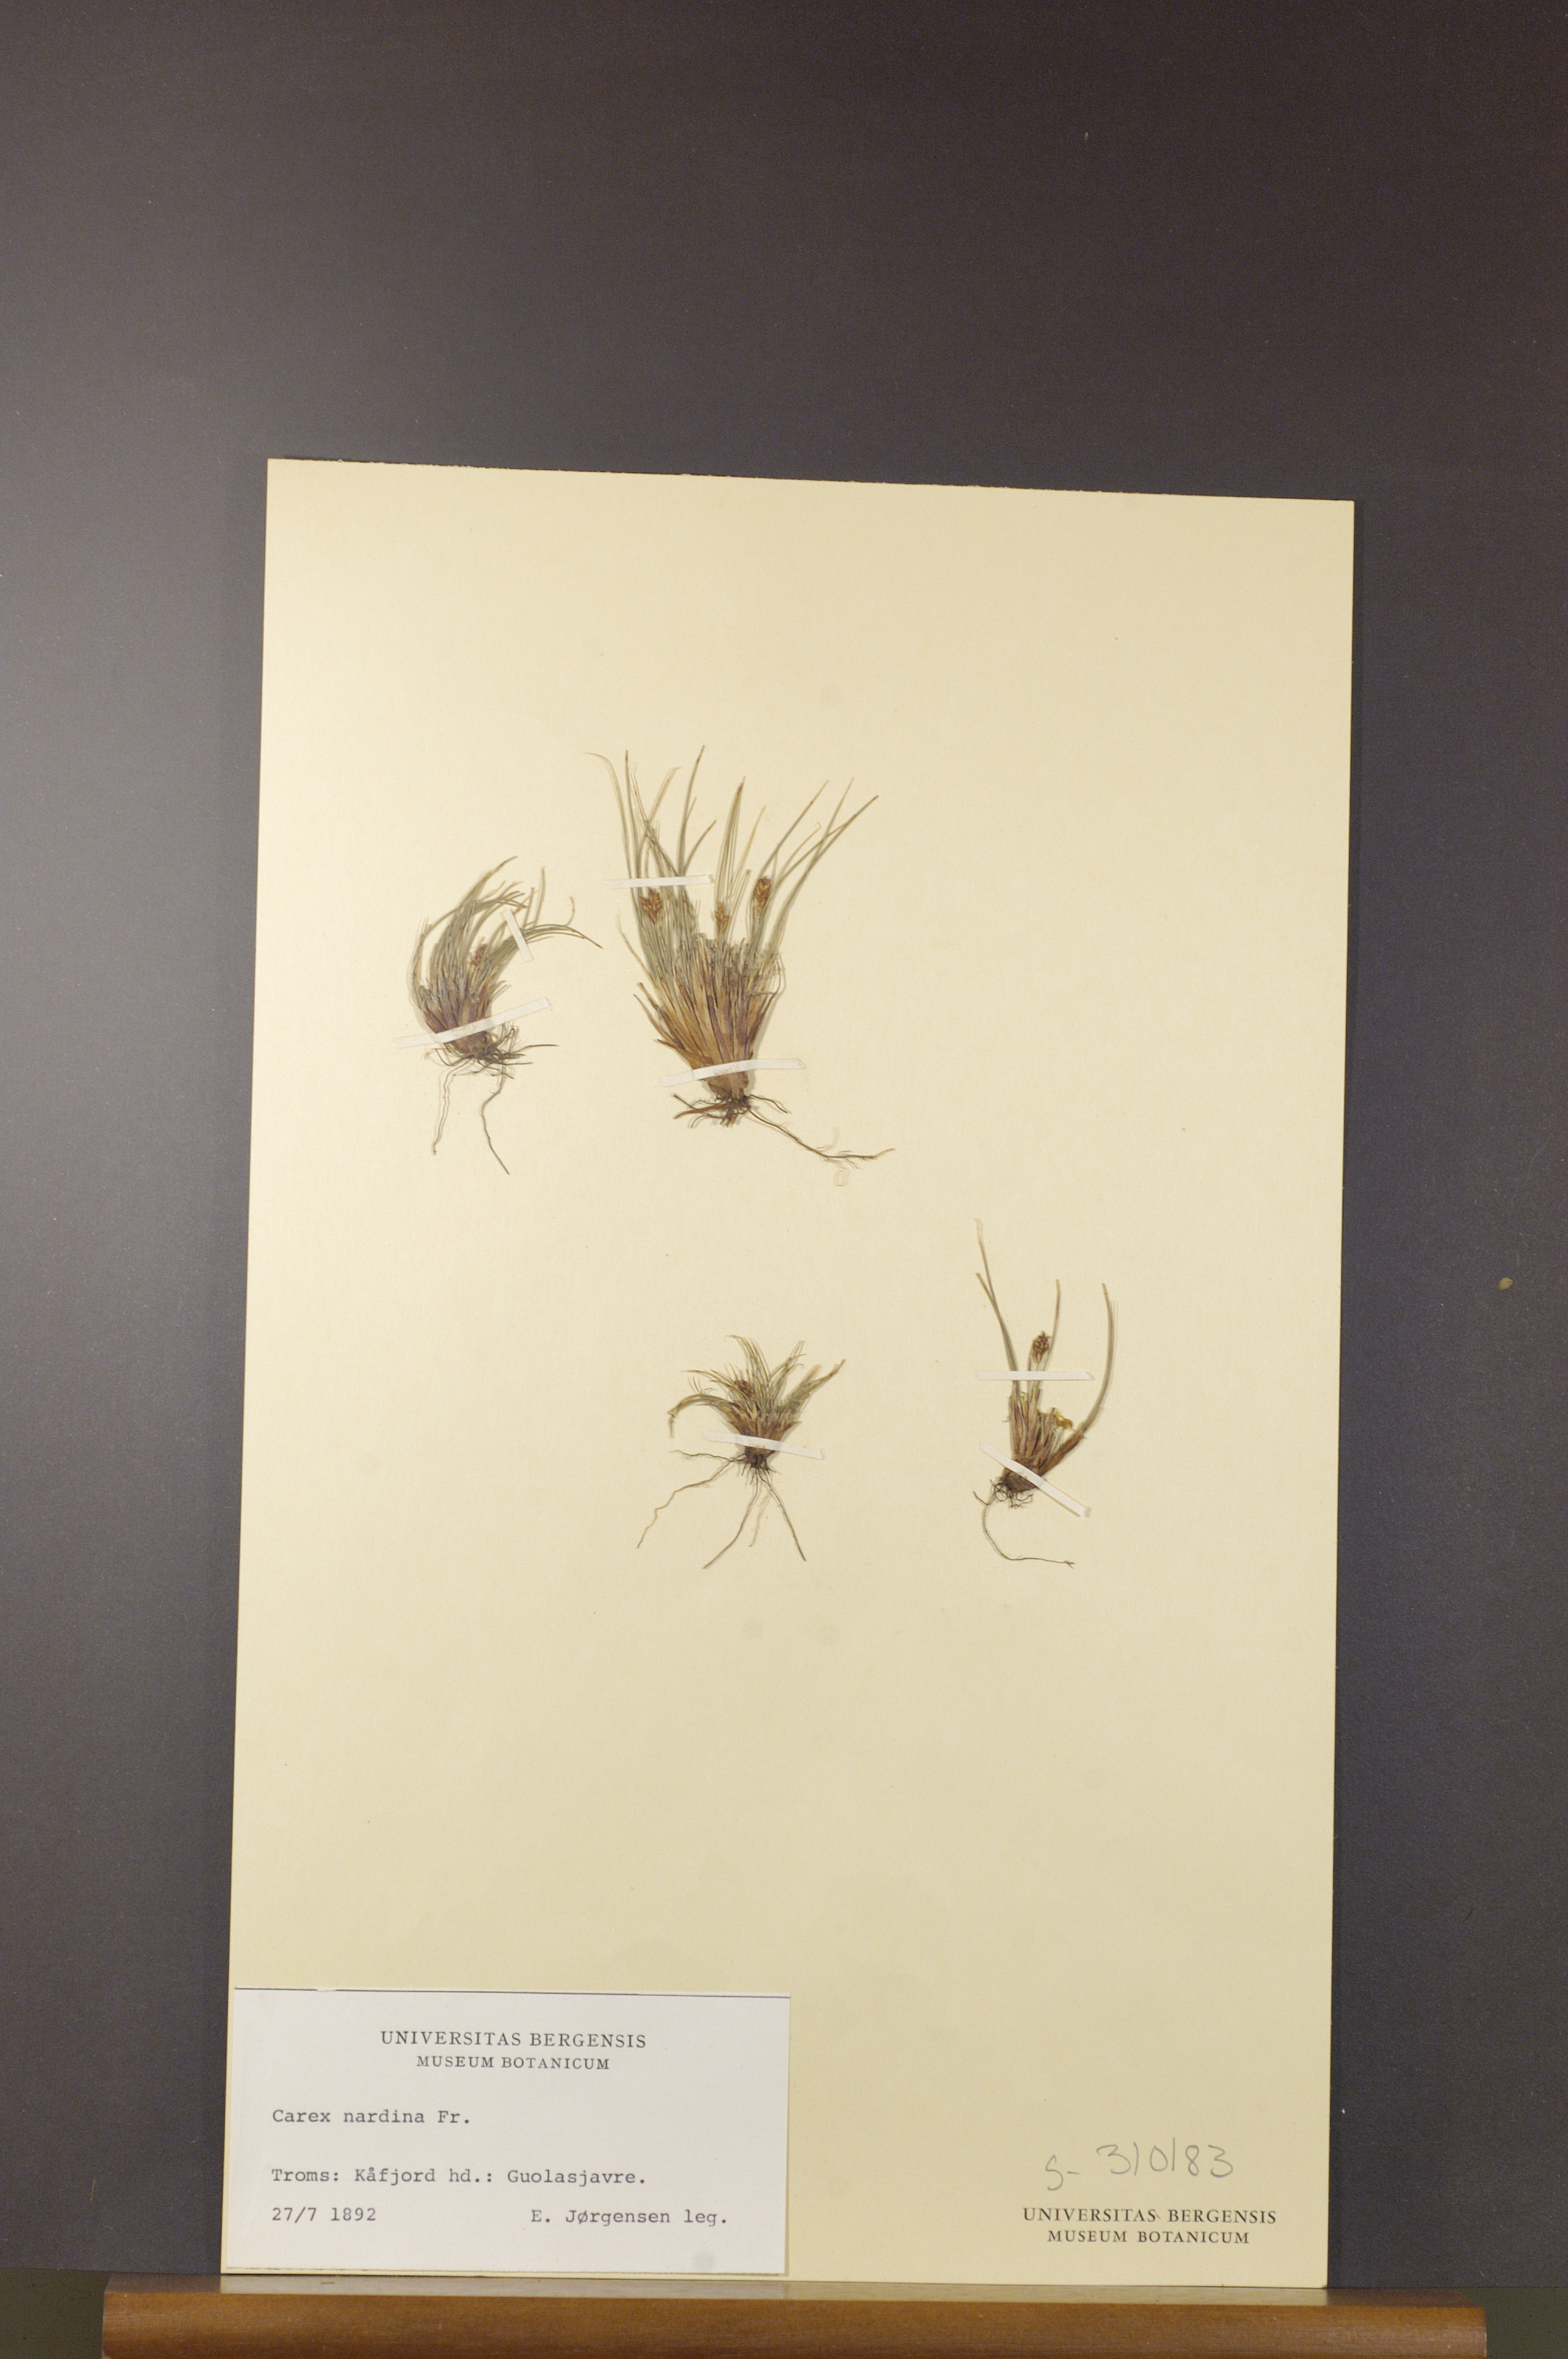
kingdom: Plantae
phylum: Tracheophyta
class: Liliopsida
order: Poales
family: Cyperaceae
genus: Carex
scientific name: Carex nardina
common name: Nard sedge
